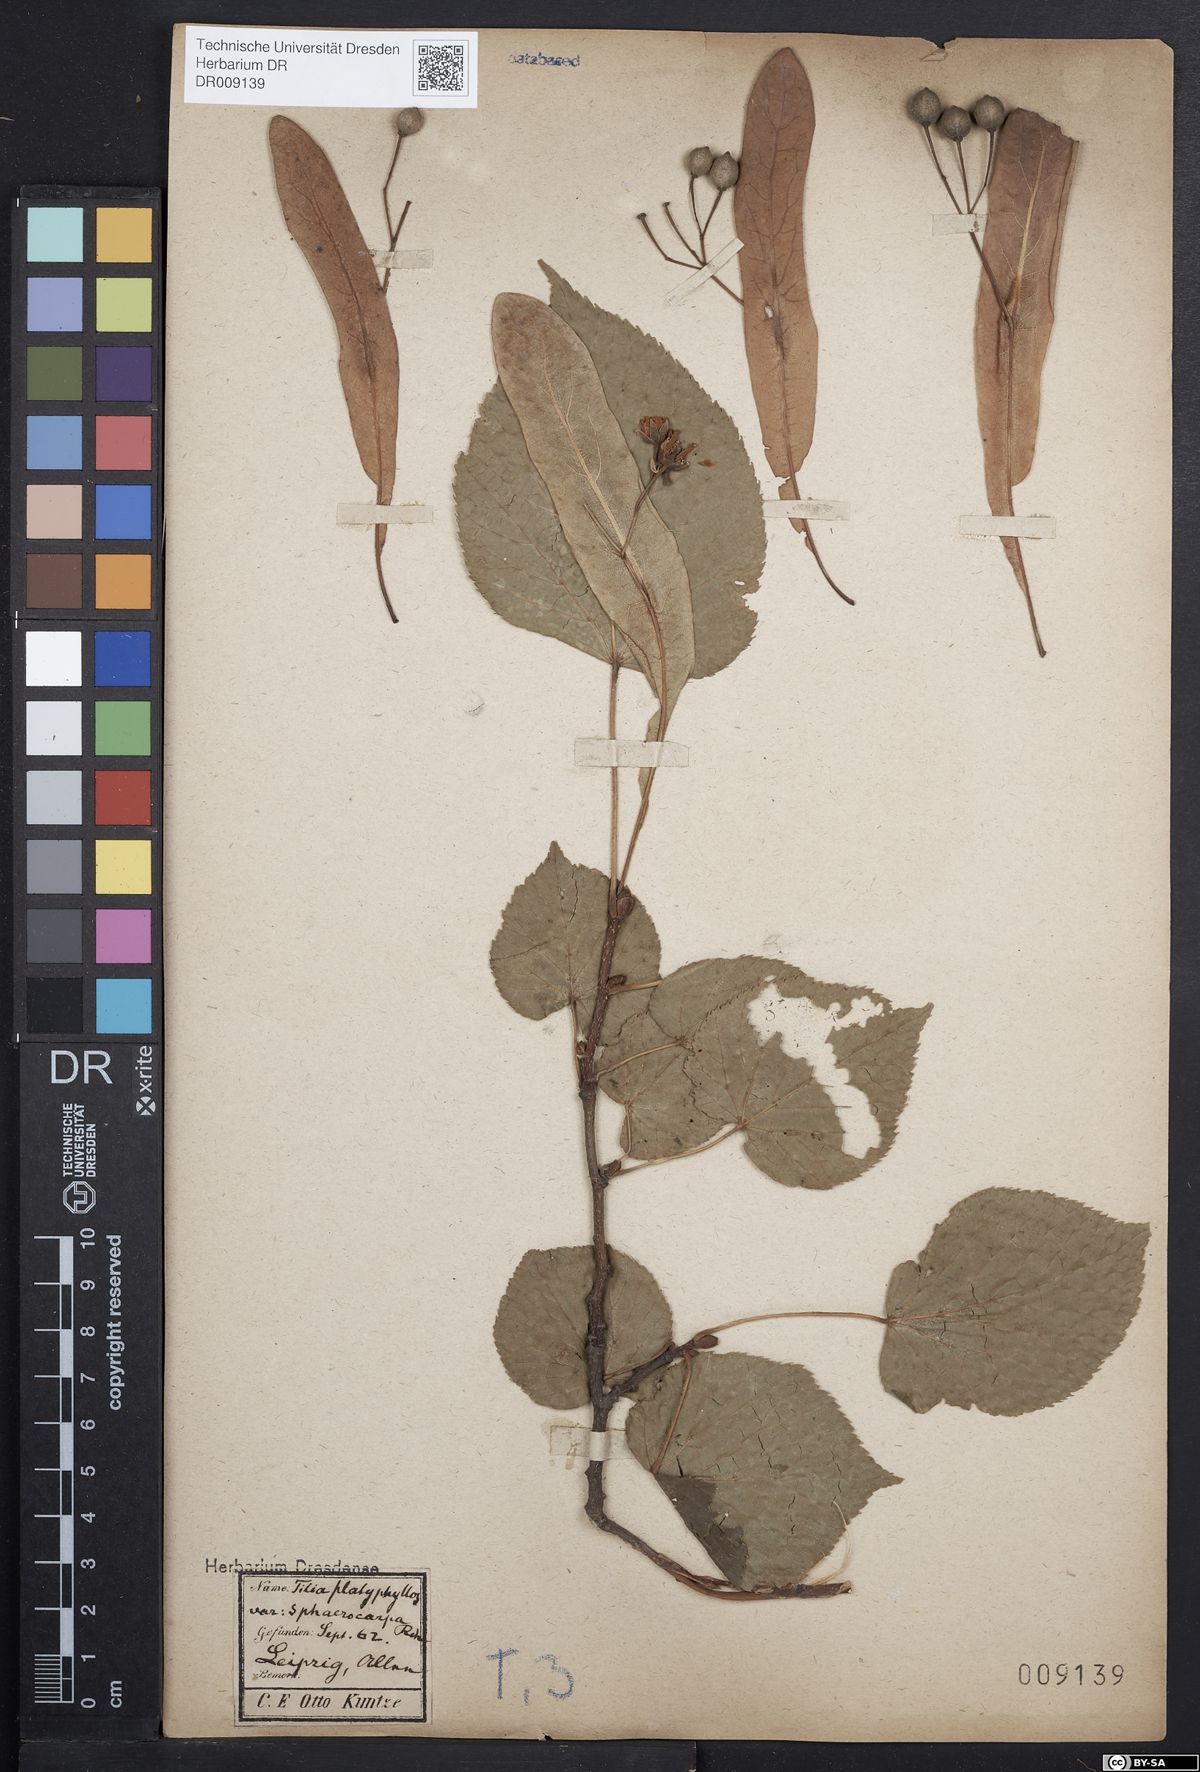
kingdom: Plantae
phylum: Tracheophyta
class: Magnoliopsida
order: Malvales
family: Malvaceae
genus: Tilia
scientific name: Tilia platyphyllos
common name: Large-leaved lime
